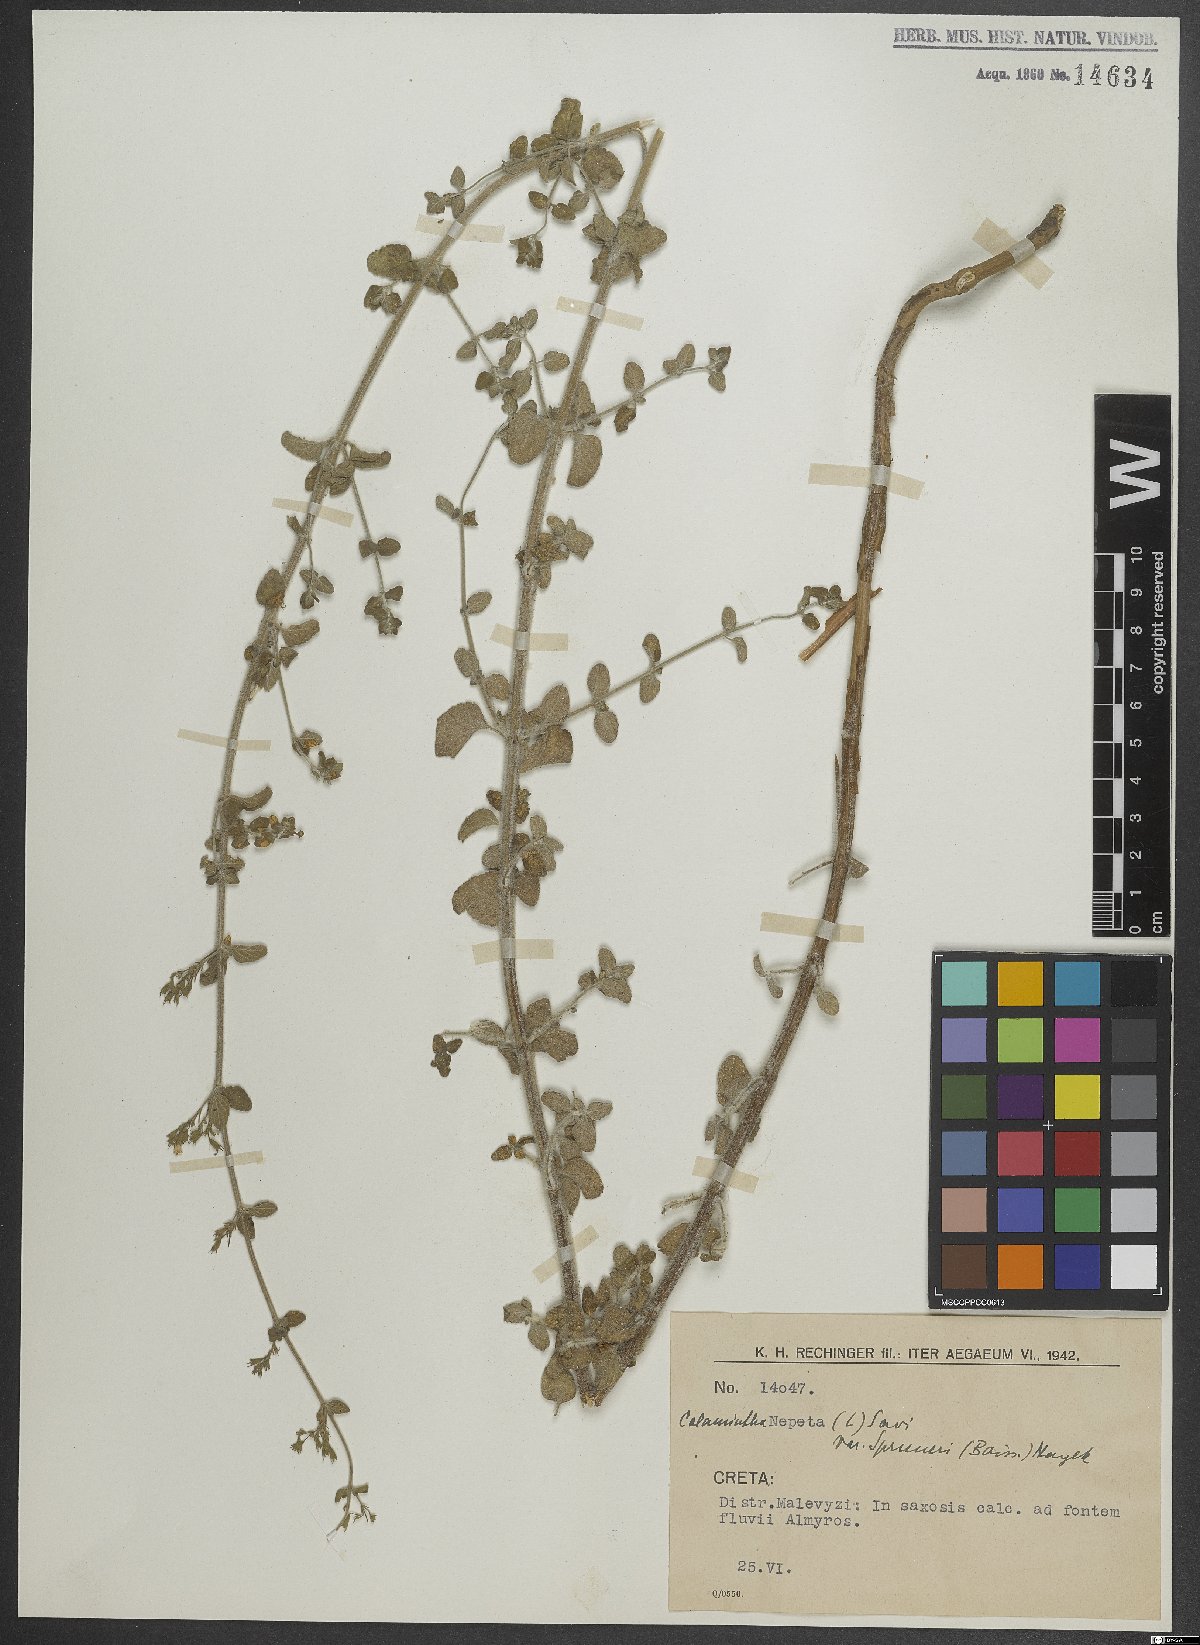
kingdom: Plantae
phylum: Tracheophyta
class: Magnoliopsida
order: Lamiales
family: Lamiaceae
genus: Clinopodium
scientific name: Clinopodium nepeta
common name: Lesser calamint
